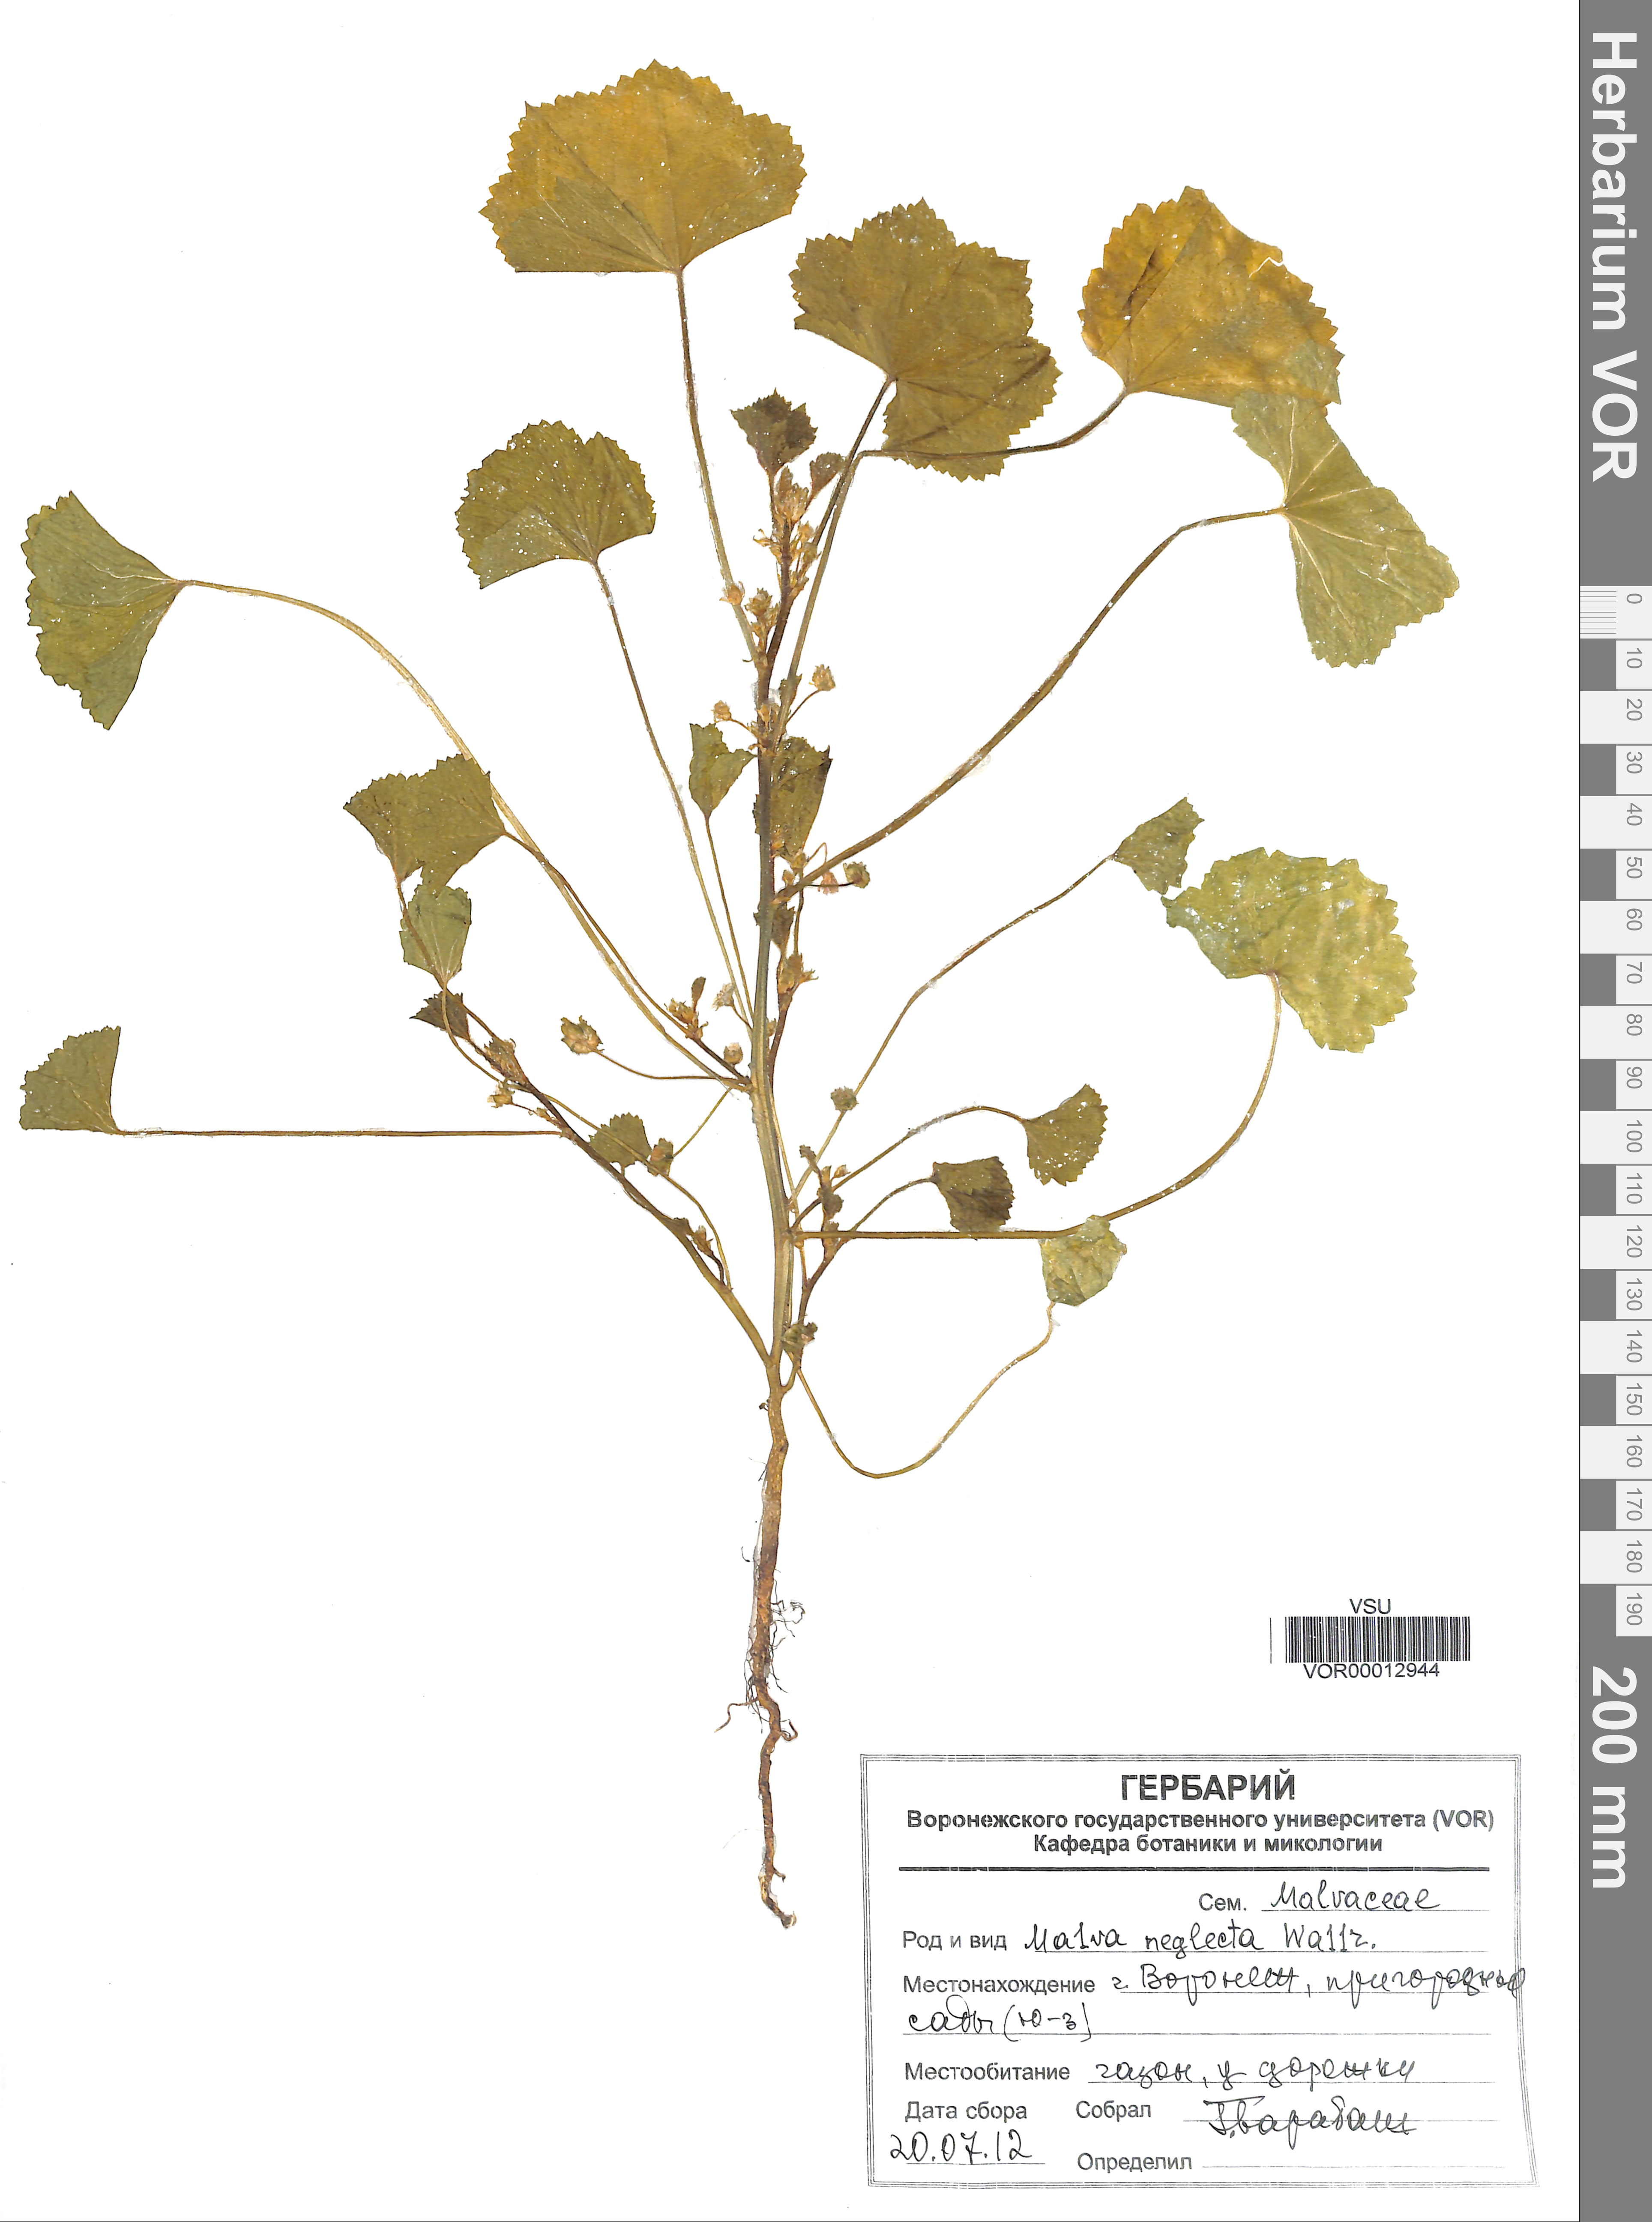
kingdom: Plantae
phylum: Tracheophyta
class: Magnoliopsida
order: Malvales
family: Malvaceae
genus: Malva
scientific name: Malva neglecta
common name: Common mallow
